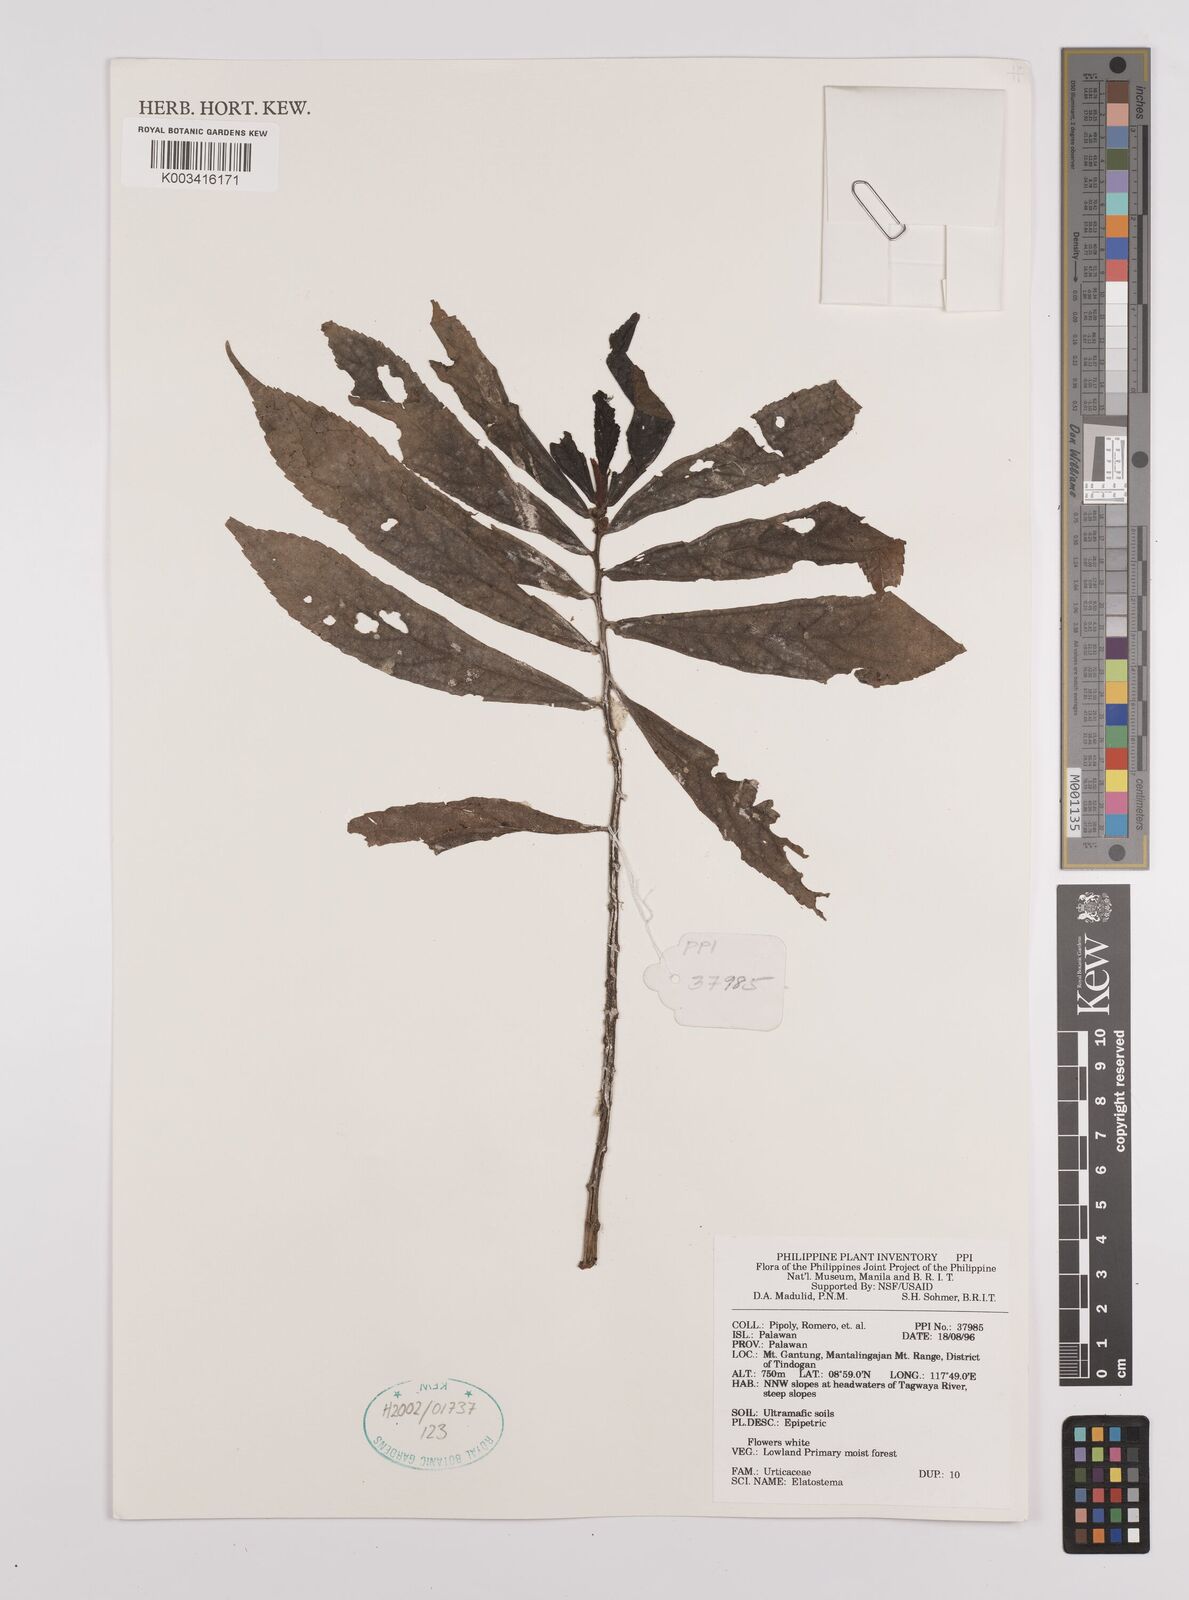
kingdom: Plantae
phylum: Tracheophyta
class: Magnoliopsida
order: Rosales
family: Urticaceae
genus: Elatostema
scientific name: Elatostema
